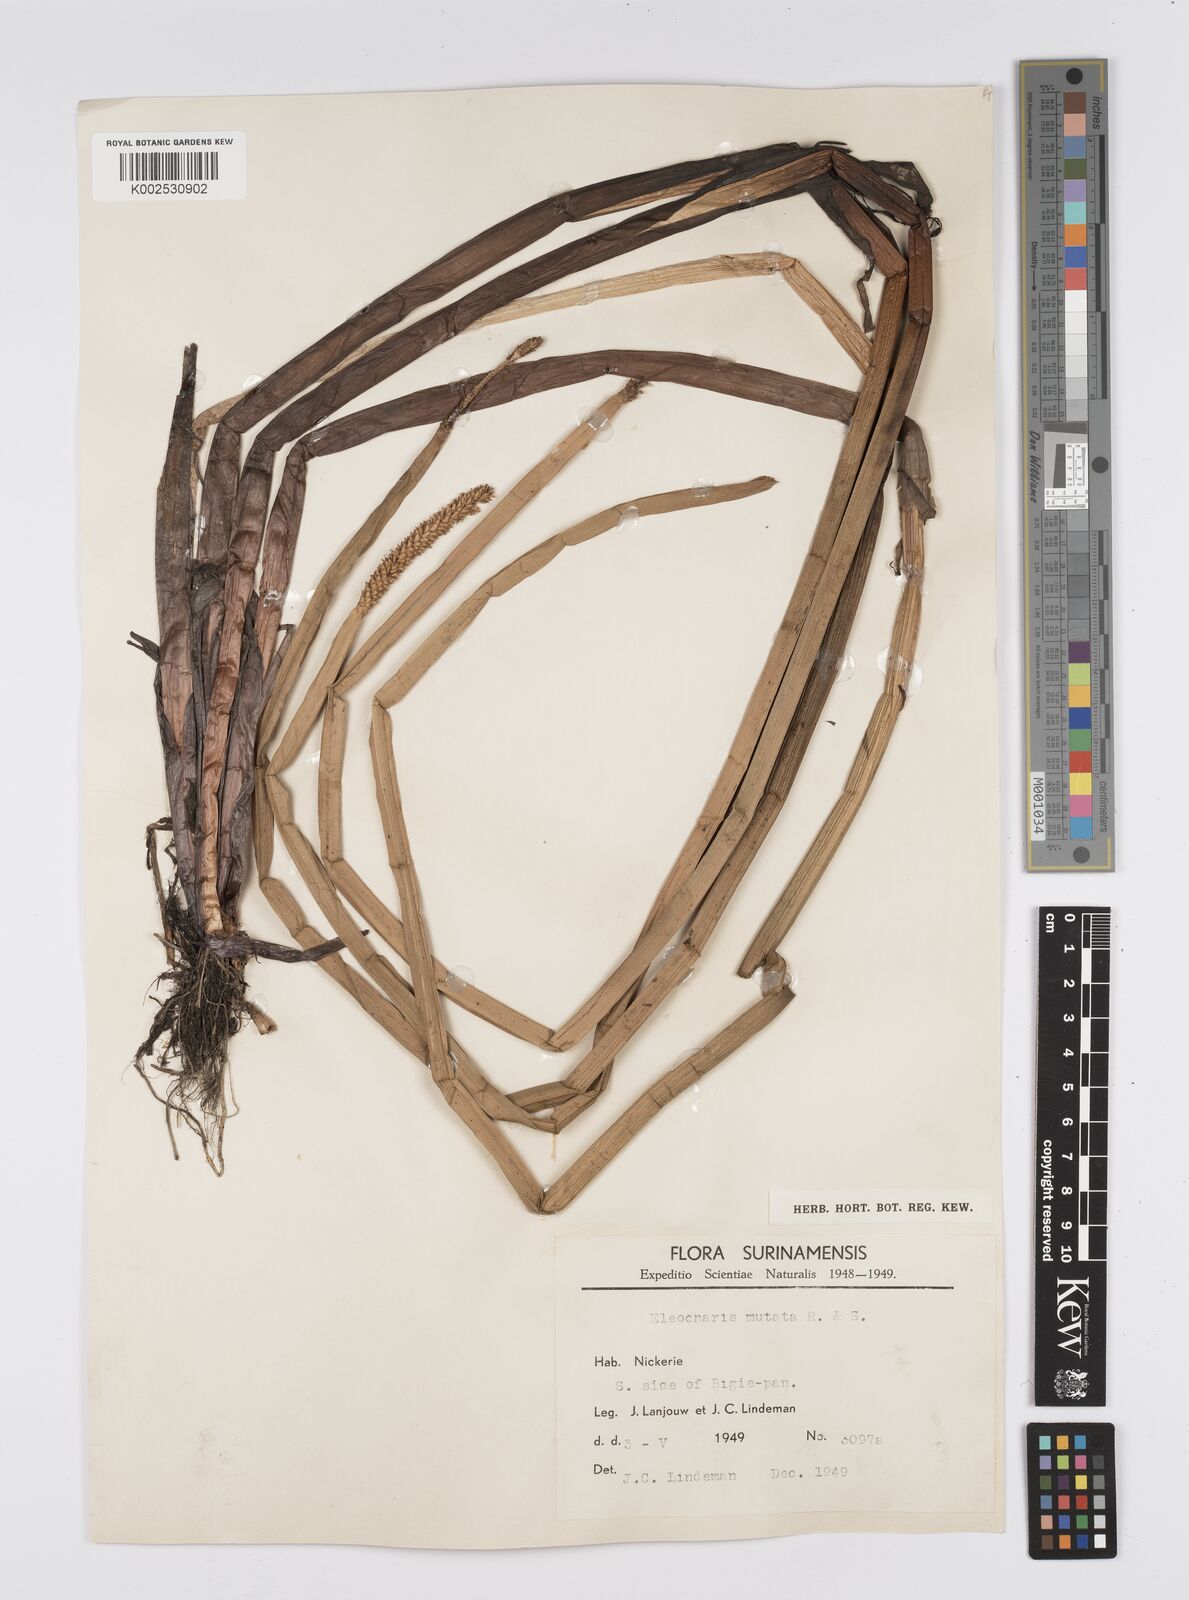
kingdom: Plantae
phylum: Tracheophyta
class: Liliopsida
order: Poales
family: Cyperaceae
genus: Eleocharis
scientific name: Eleocharis mutata
